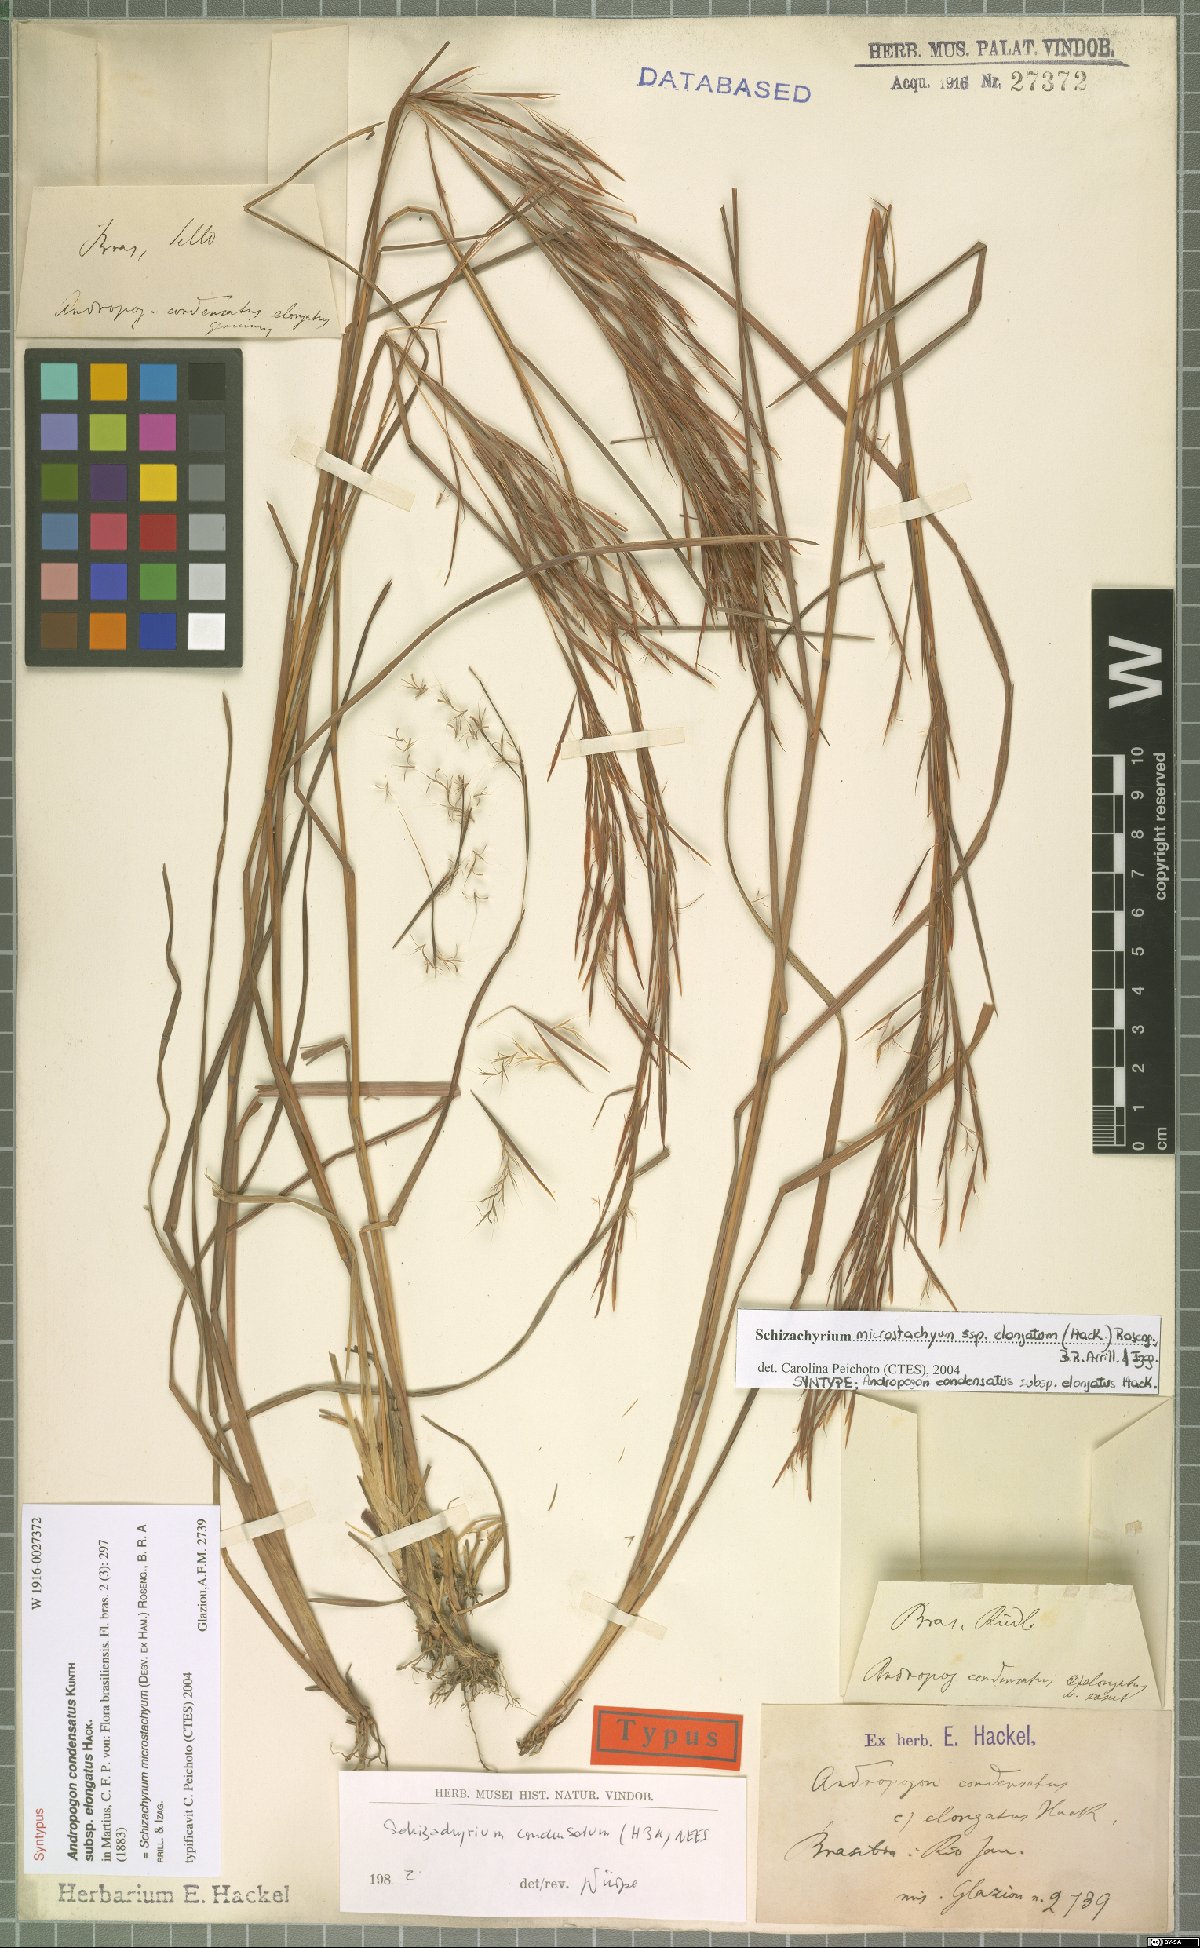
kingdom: Plantae
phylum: Tracheophyta
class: Liliopsida
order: Poales
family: Poaceae
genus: Schizachyrium
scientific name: Schizachyrium microstachyum
